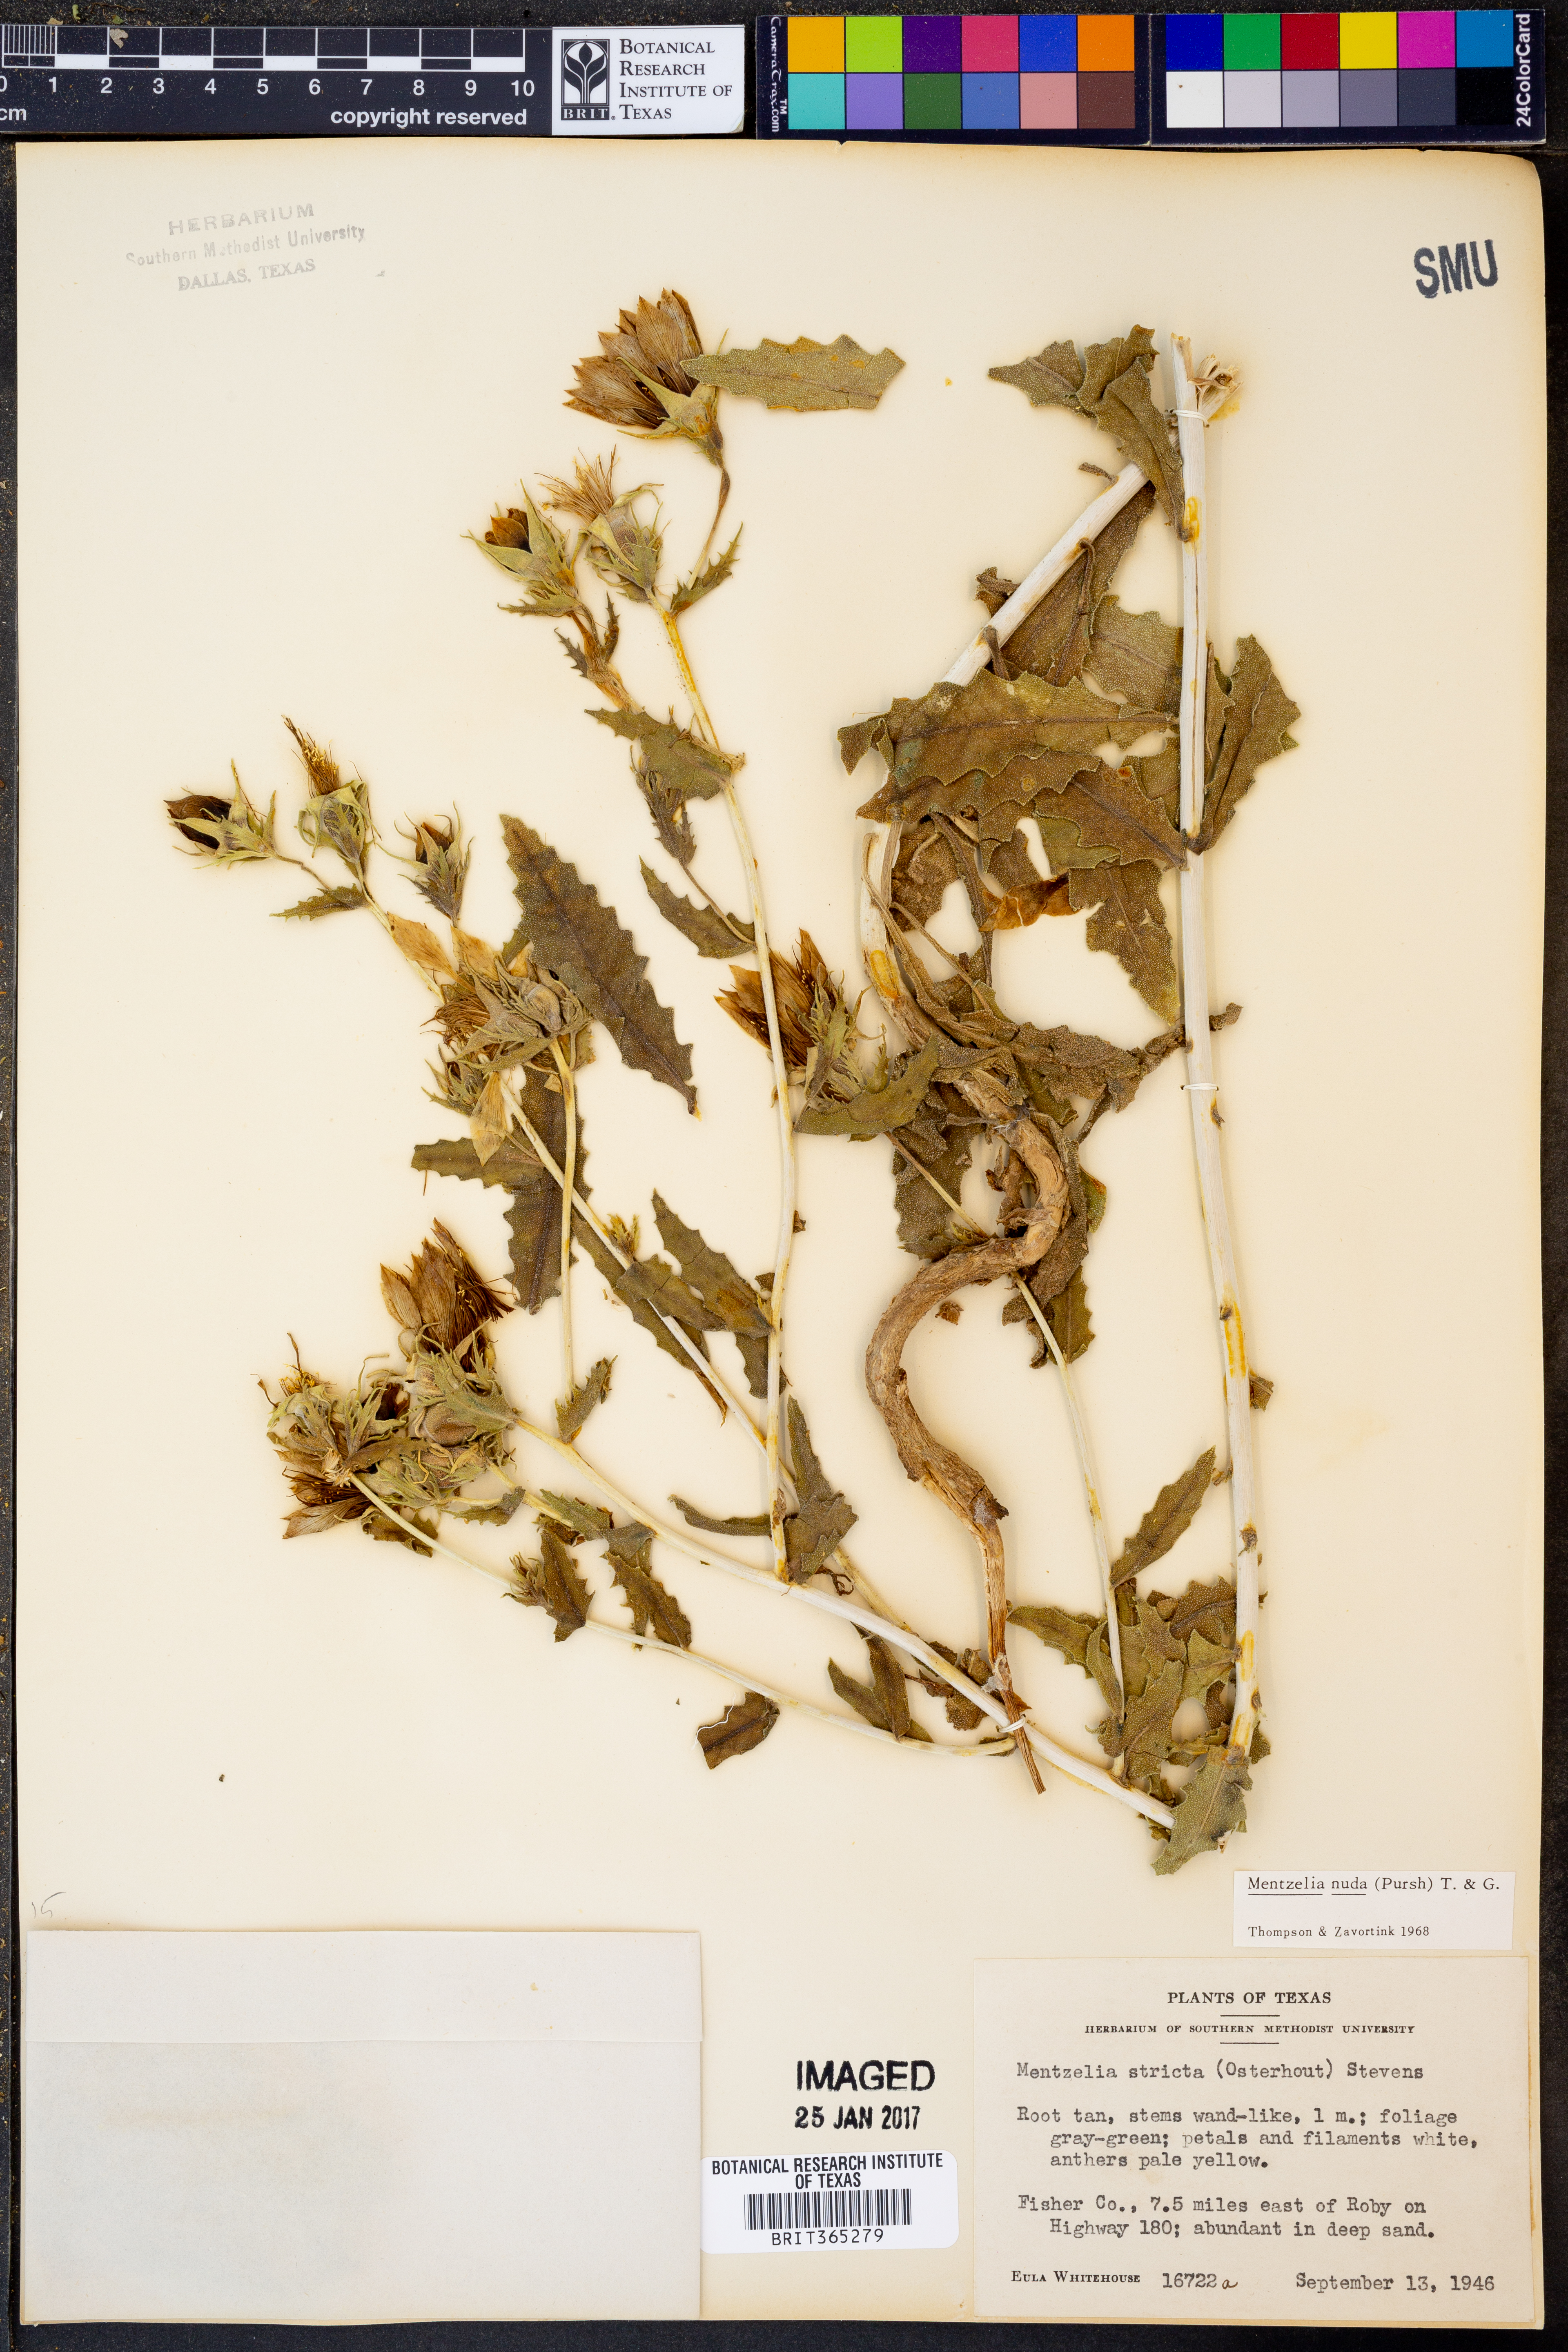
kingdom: Plantae
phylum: Tracheophyta
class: Magnoliopsida
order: Cornales
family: Loasaceae
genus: Mentzelia
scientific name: Mentzelia nuda
